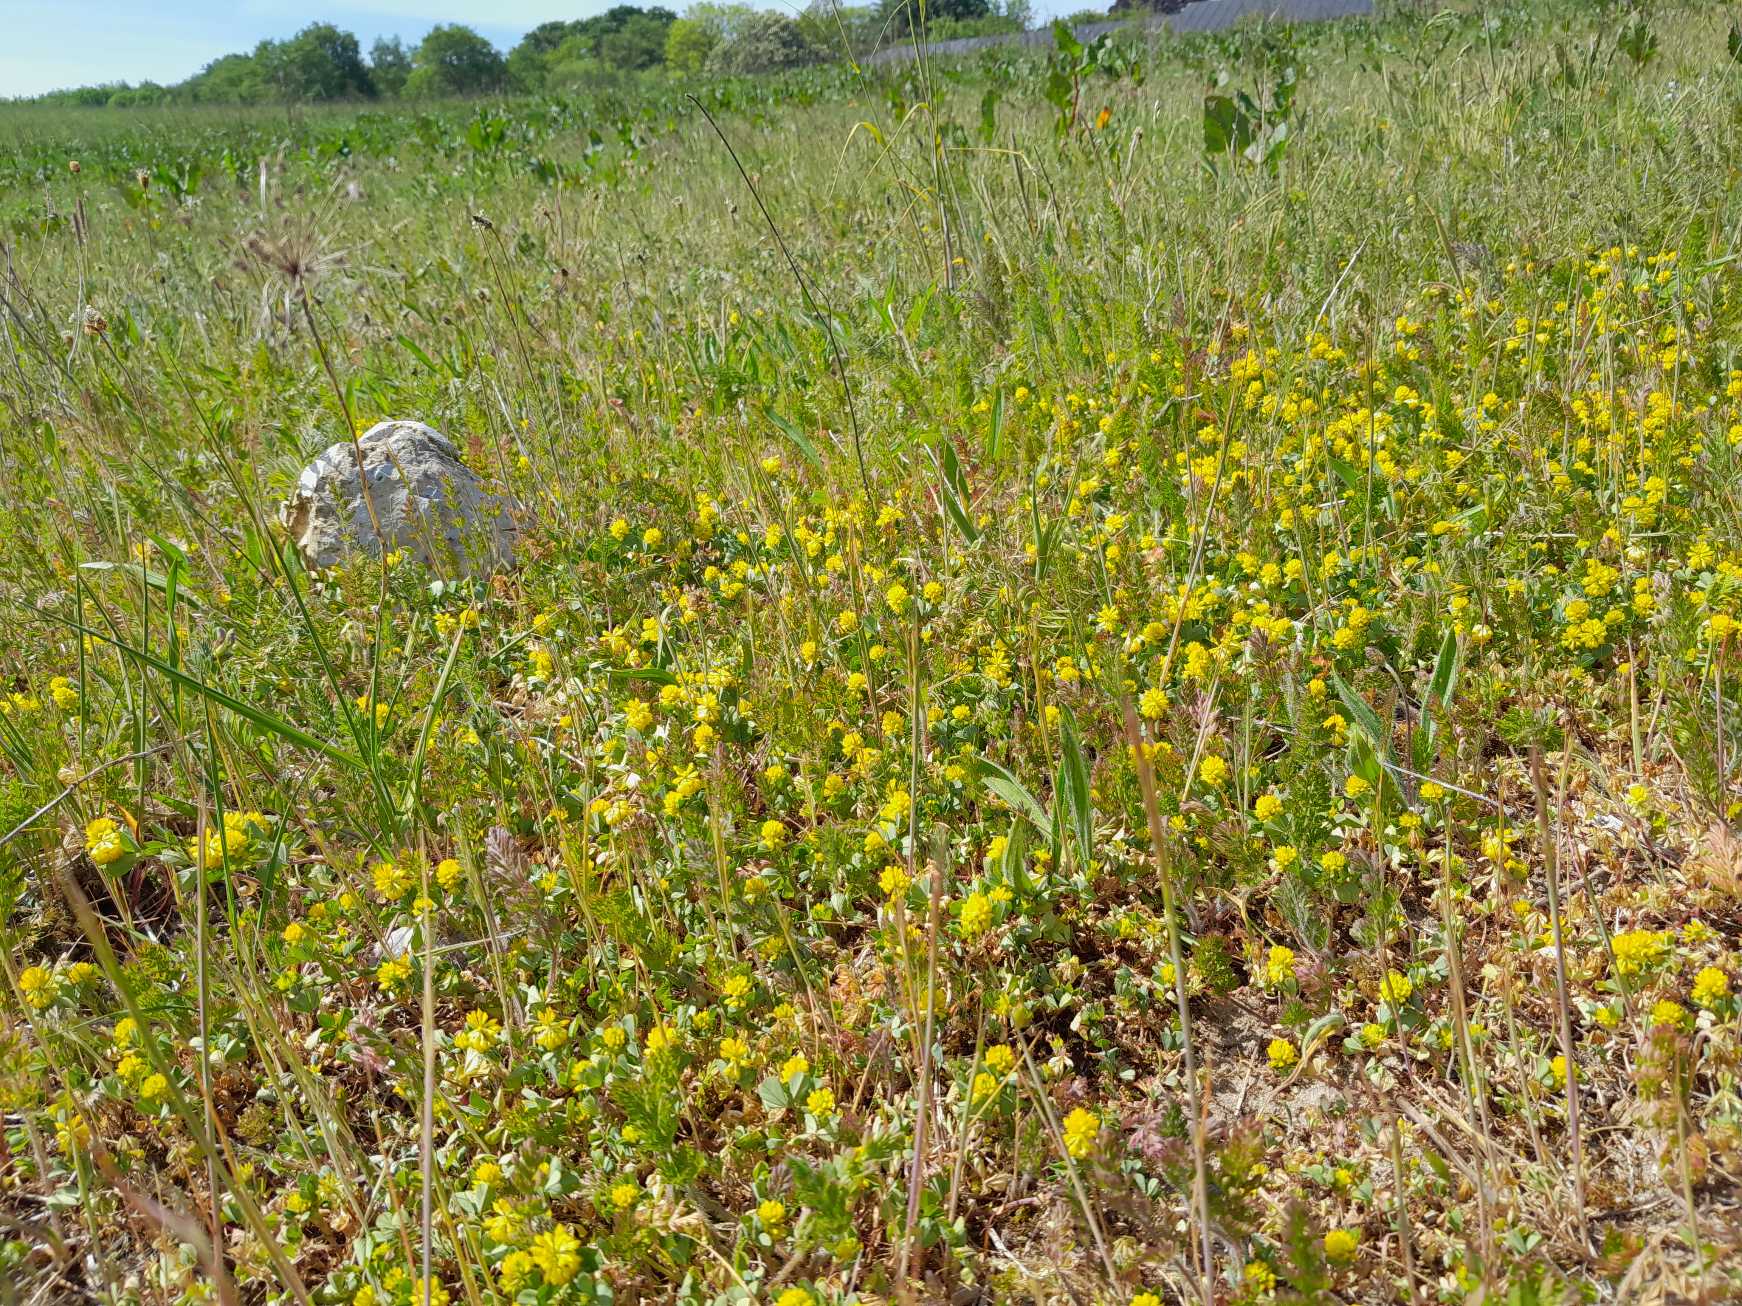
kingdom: Plantae
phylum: Tracheophyta
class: Magnoliopsida
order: Fabales
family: Fabaceae
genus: Trifolium
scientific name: Trifolium campestre
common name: Gul kløver
